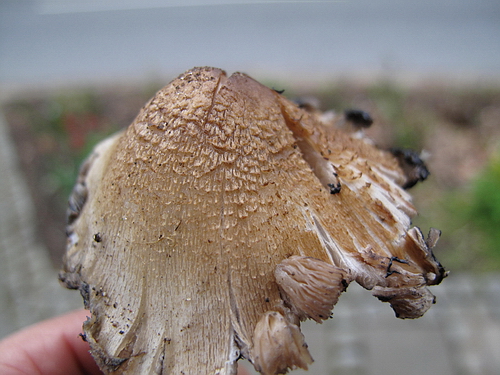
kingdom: Fungi
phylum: Basidiomycota
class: Agaricomycetes
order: Agaricales
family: Psathyrellaceae
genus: Coprinopsis
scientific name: Coprinopsis romagnesiana
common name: brunskællet blækhat
